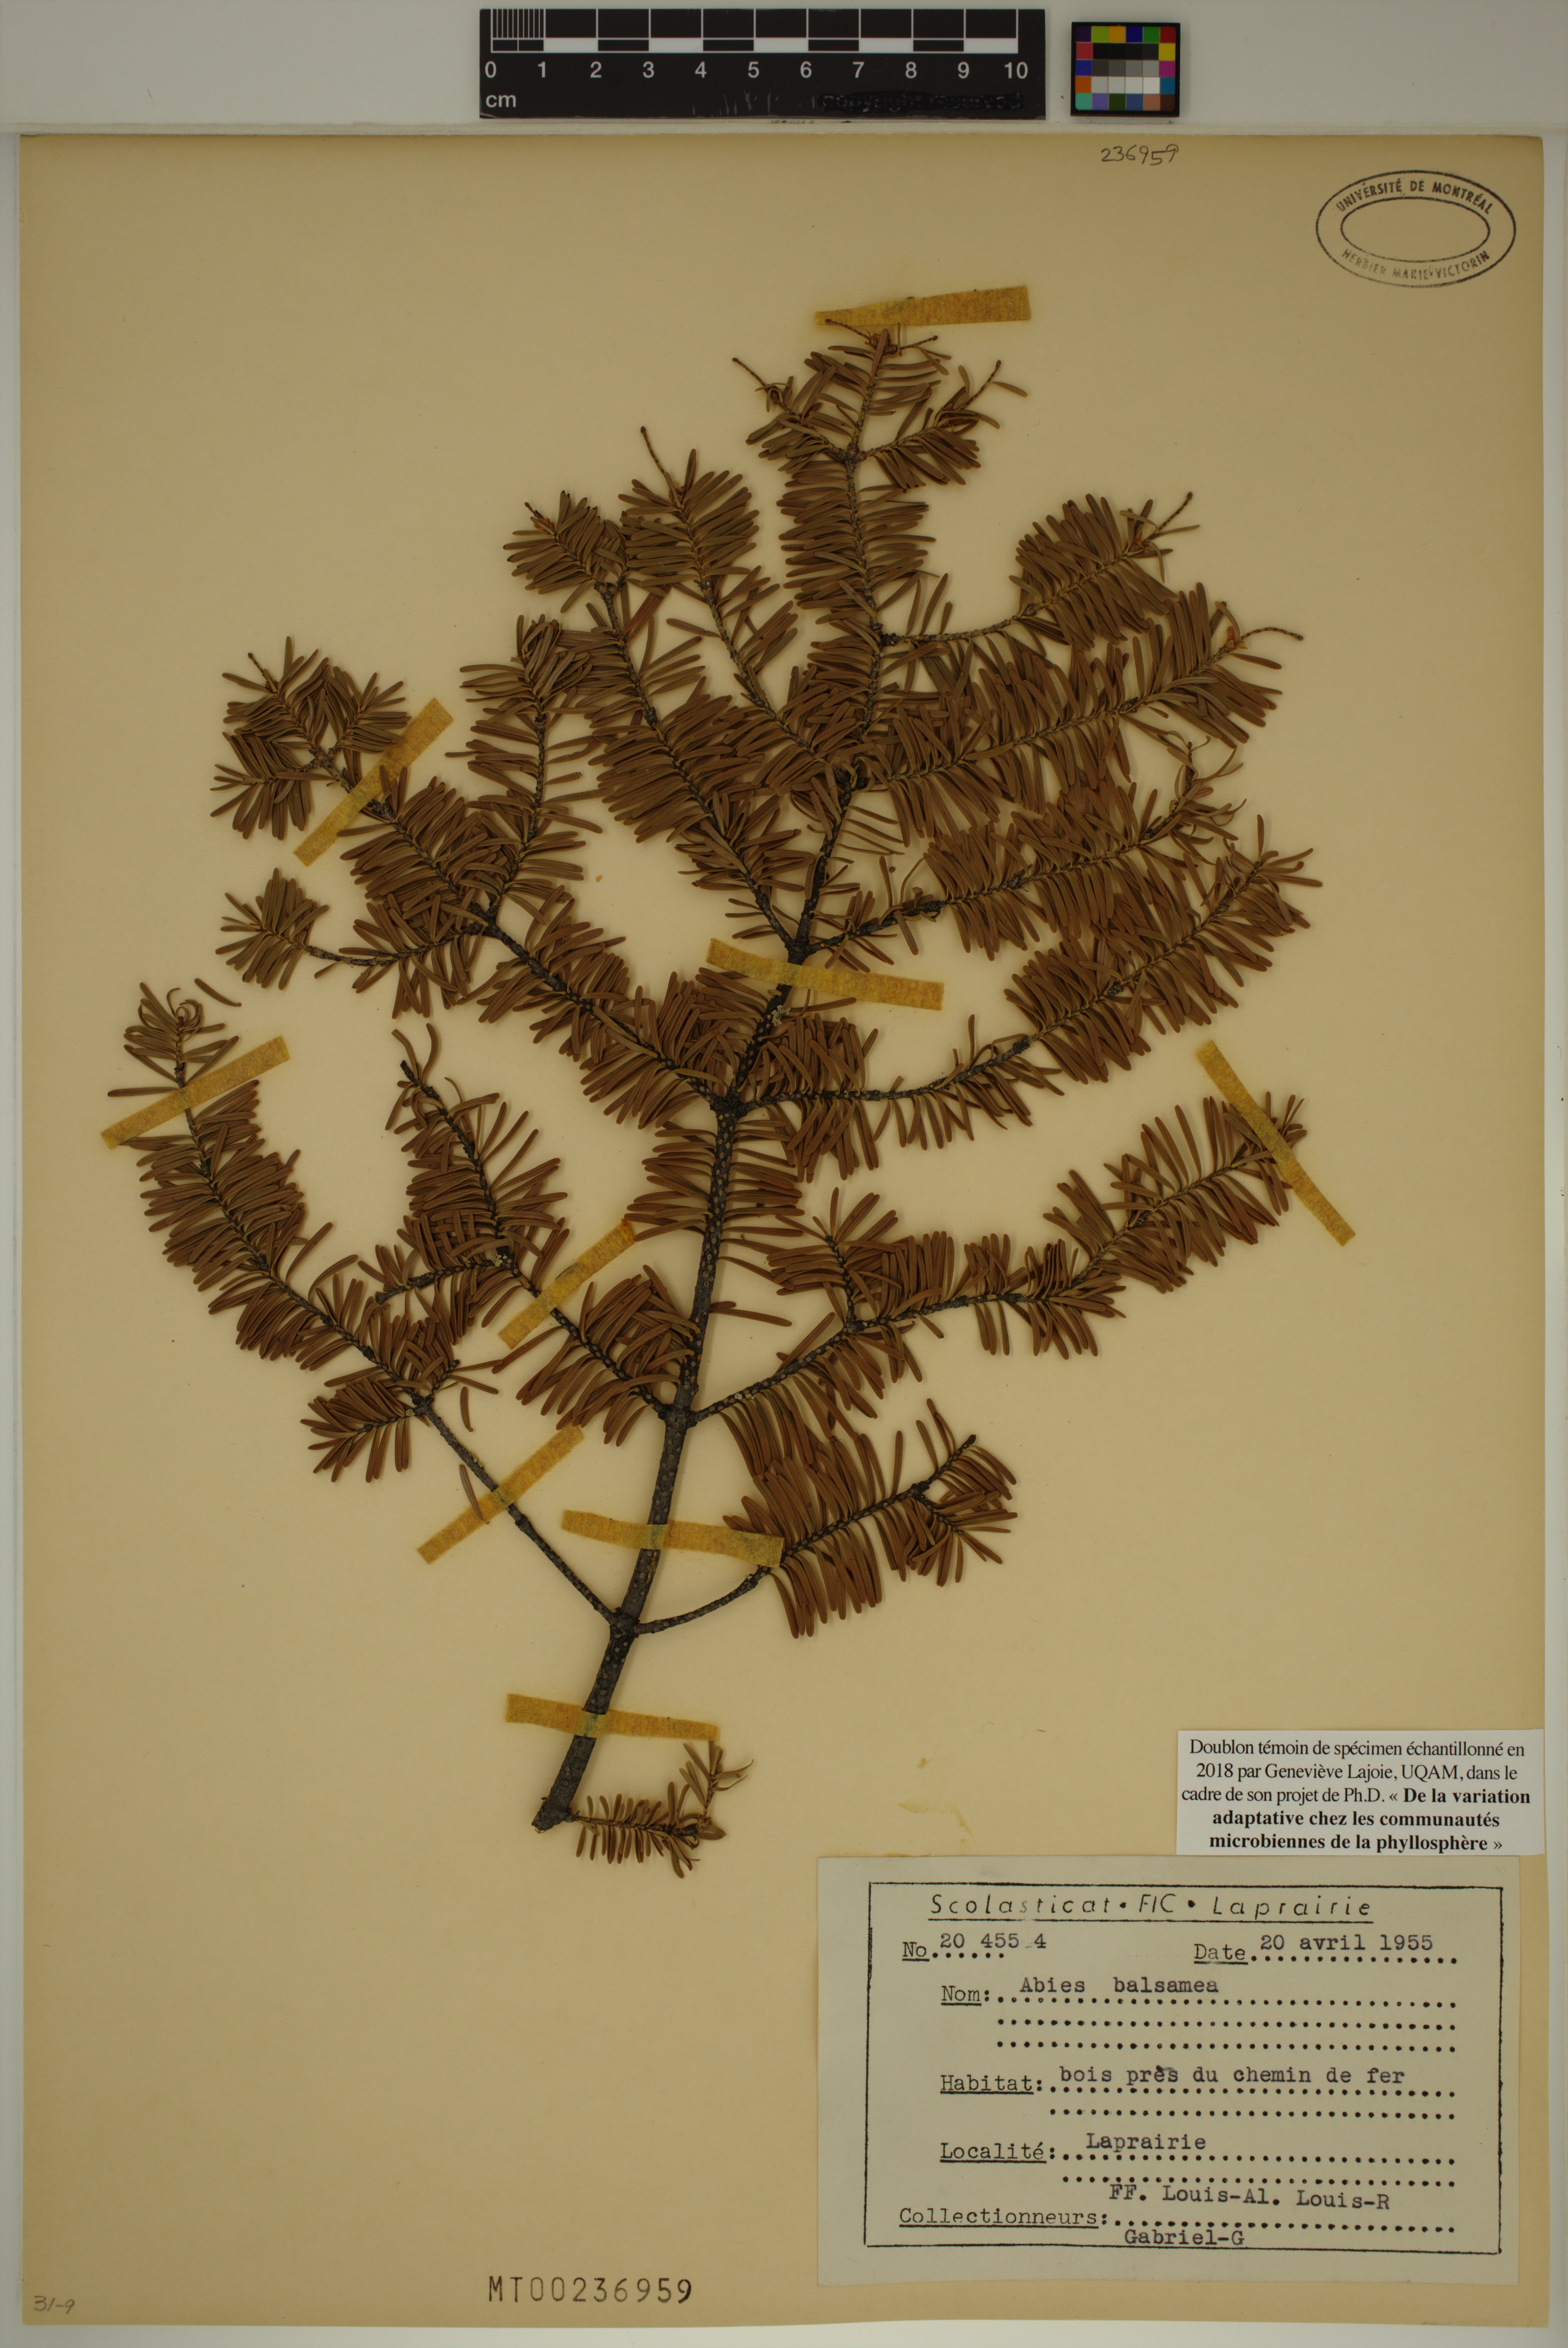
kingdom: Plantae
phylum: Tracheophyta
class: Pinopsida
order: Pinales
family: Pinaceae
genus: Abies
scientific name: Abies balsamea
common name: Balsam fir
